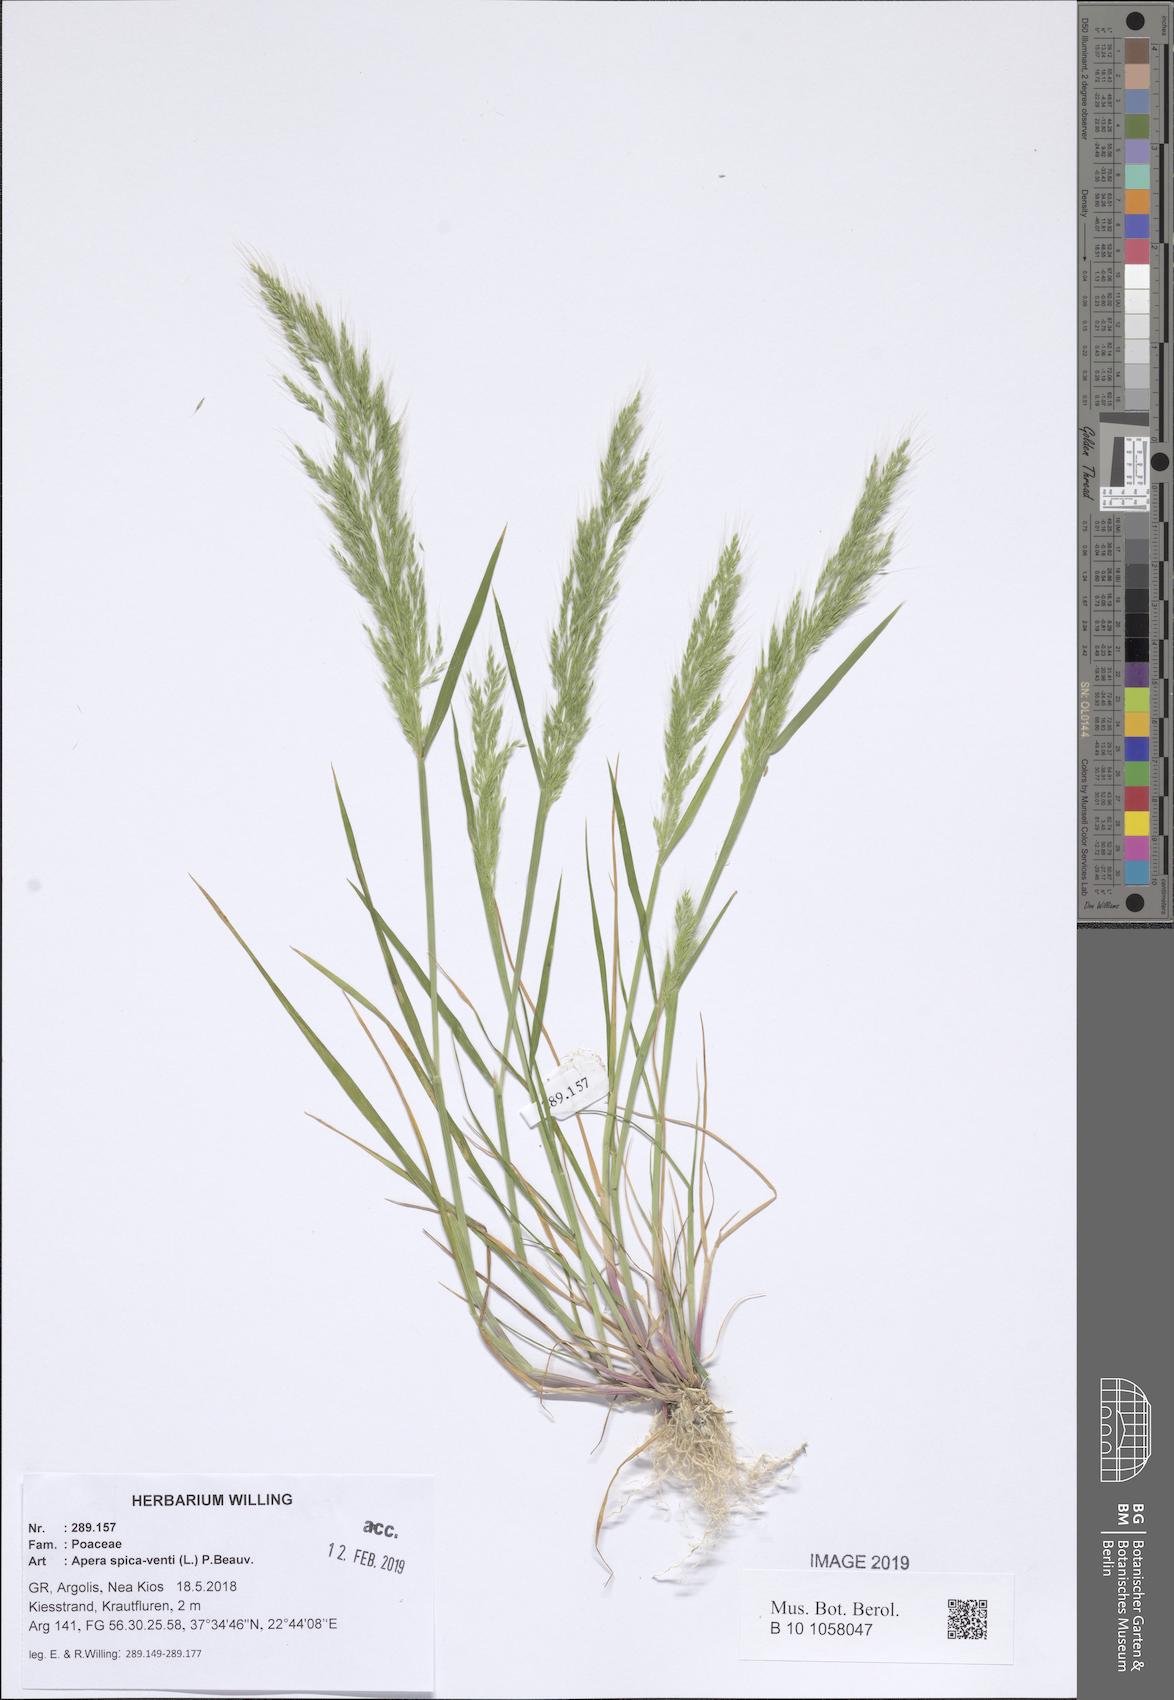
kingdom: Plantae
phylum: Tracheophyta
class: Liliopsida
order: Poales
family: Poaceae
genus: Apera
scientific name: Apera spica-venti
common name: Loose silky-bent
